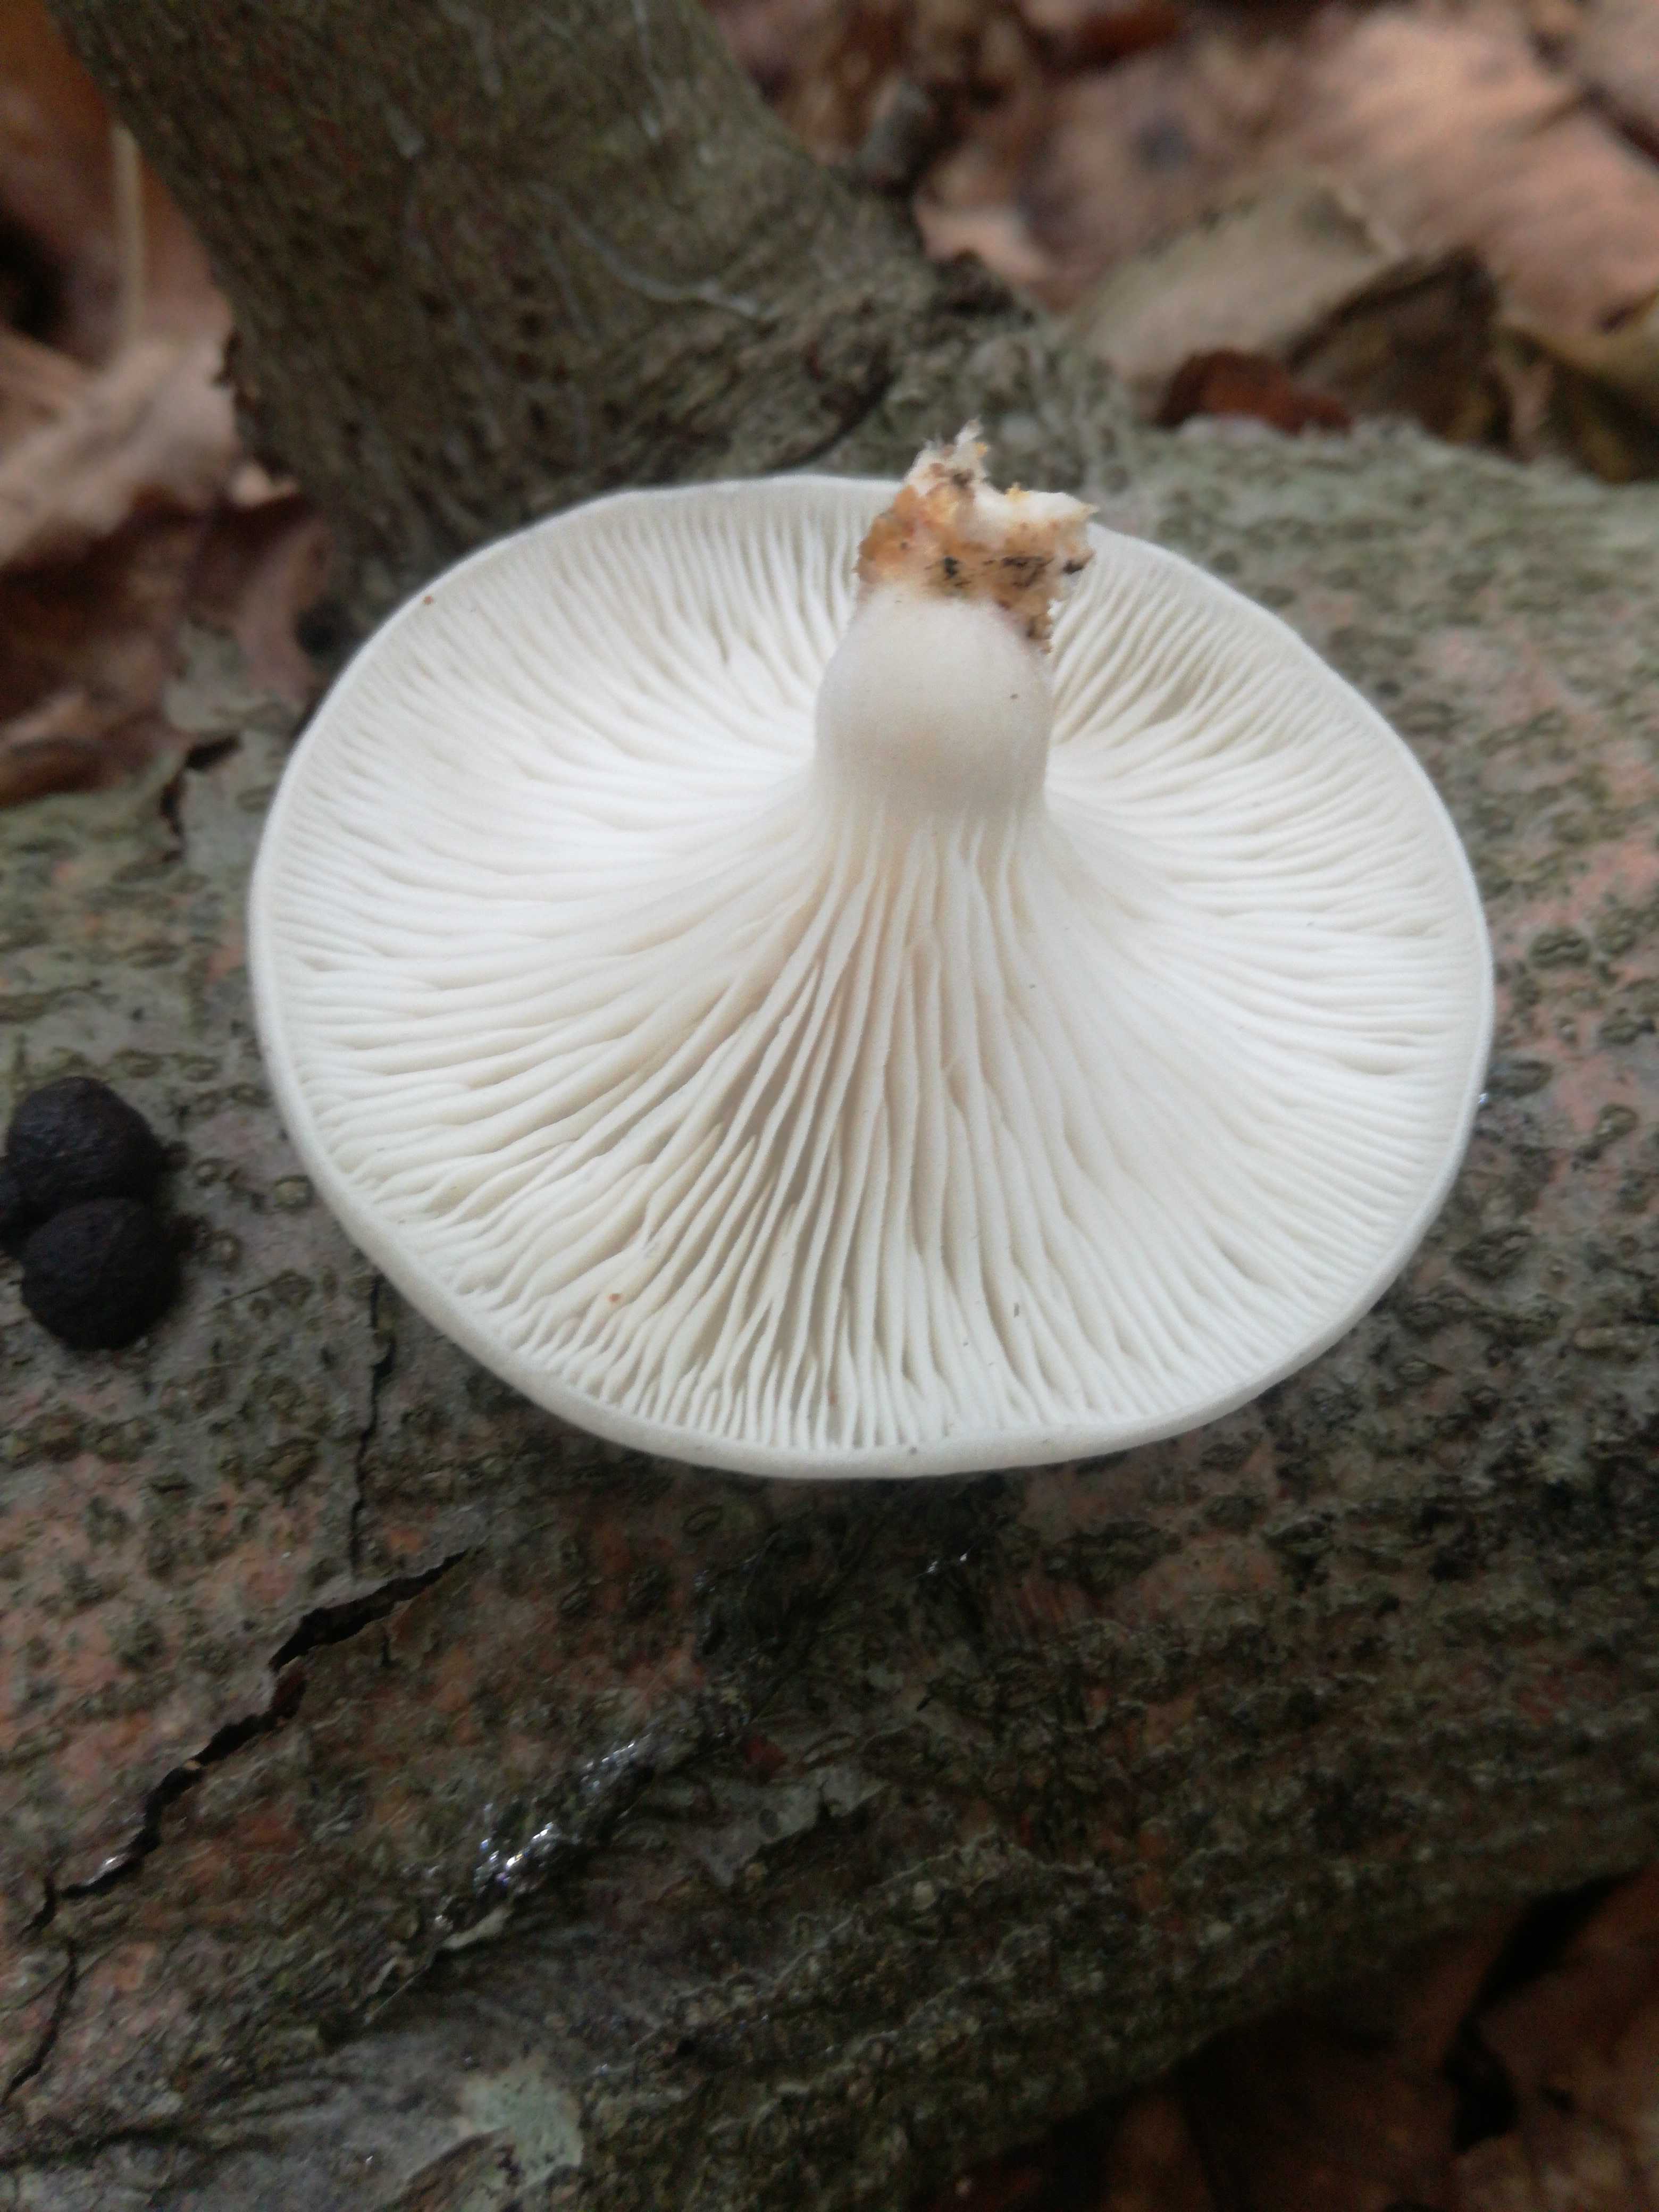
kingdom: Fungi
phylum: Basidiomycota
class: Agaricomycetes
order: Agaricales
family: Pleurotaceae
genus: Pleurotus
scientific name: Pleurotus pulmonarius
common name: sommer-østershat
